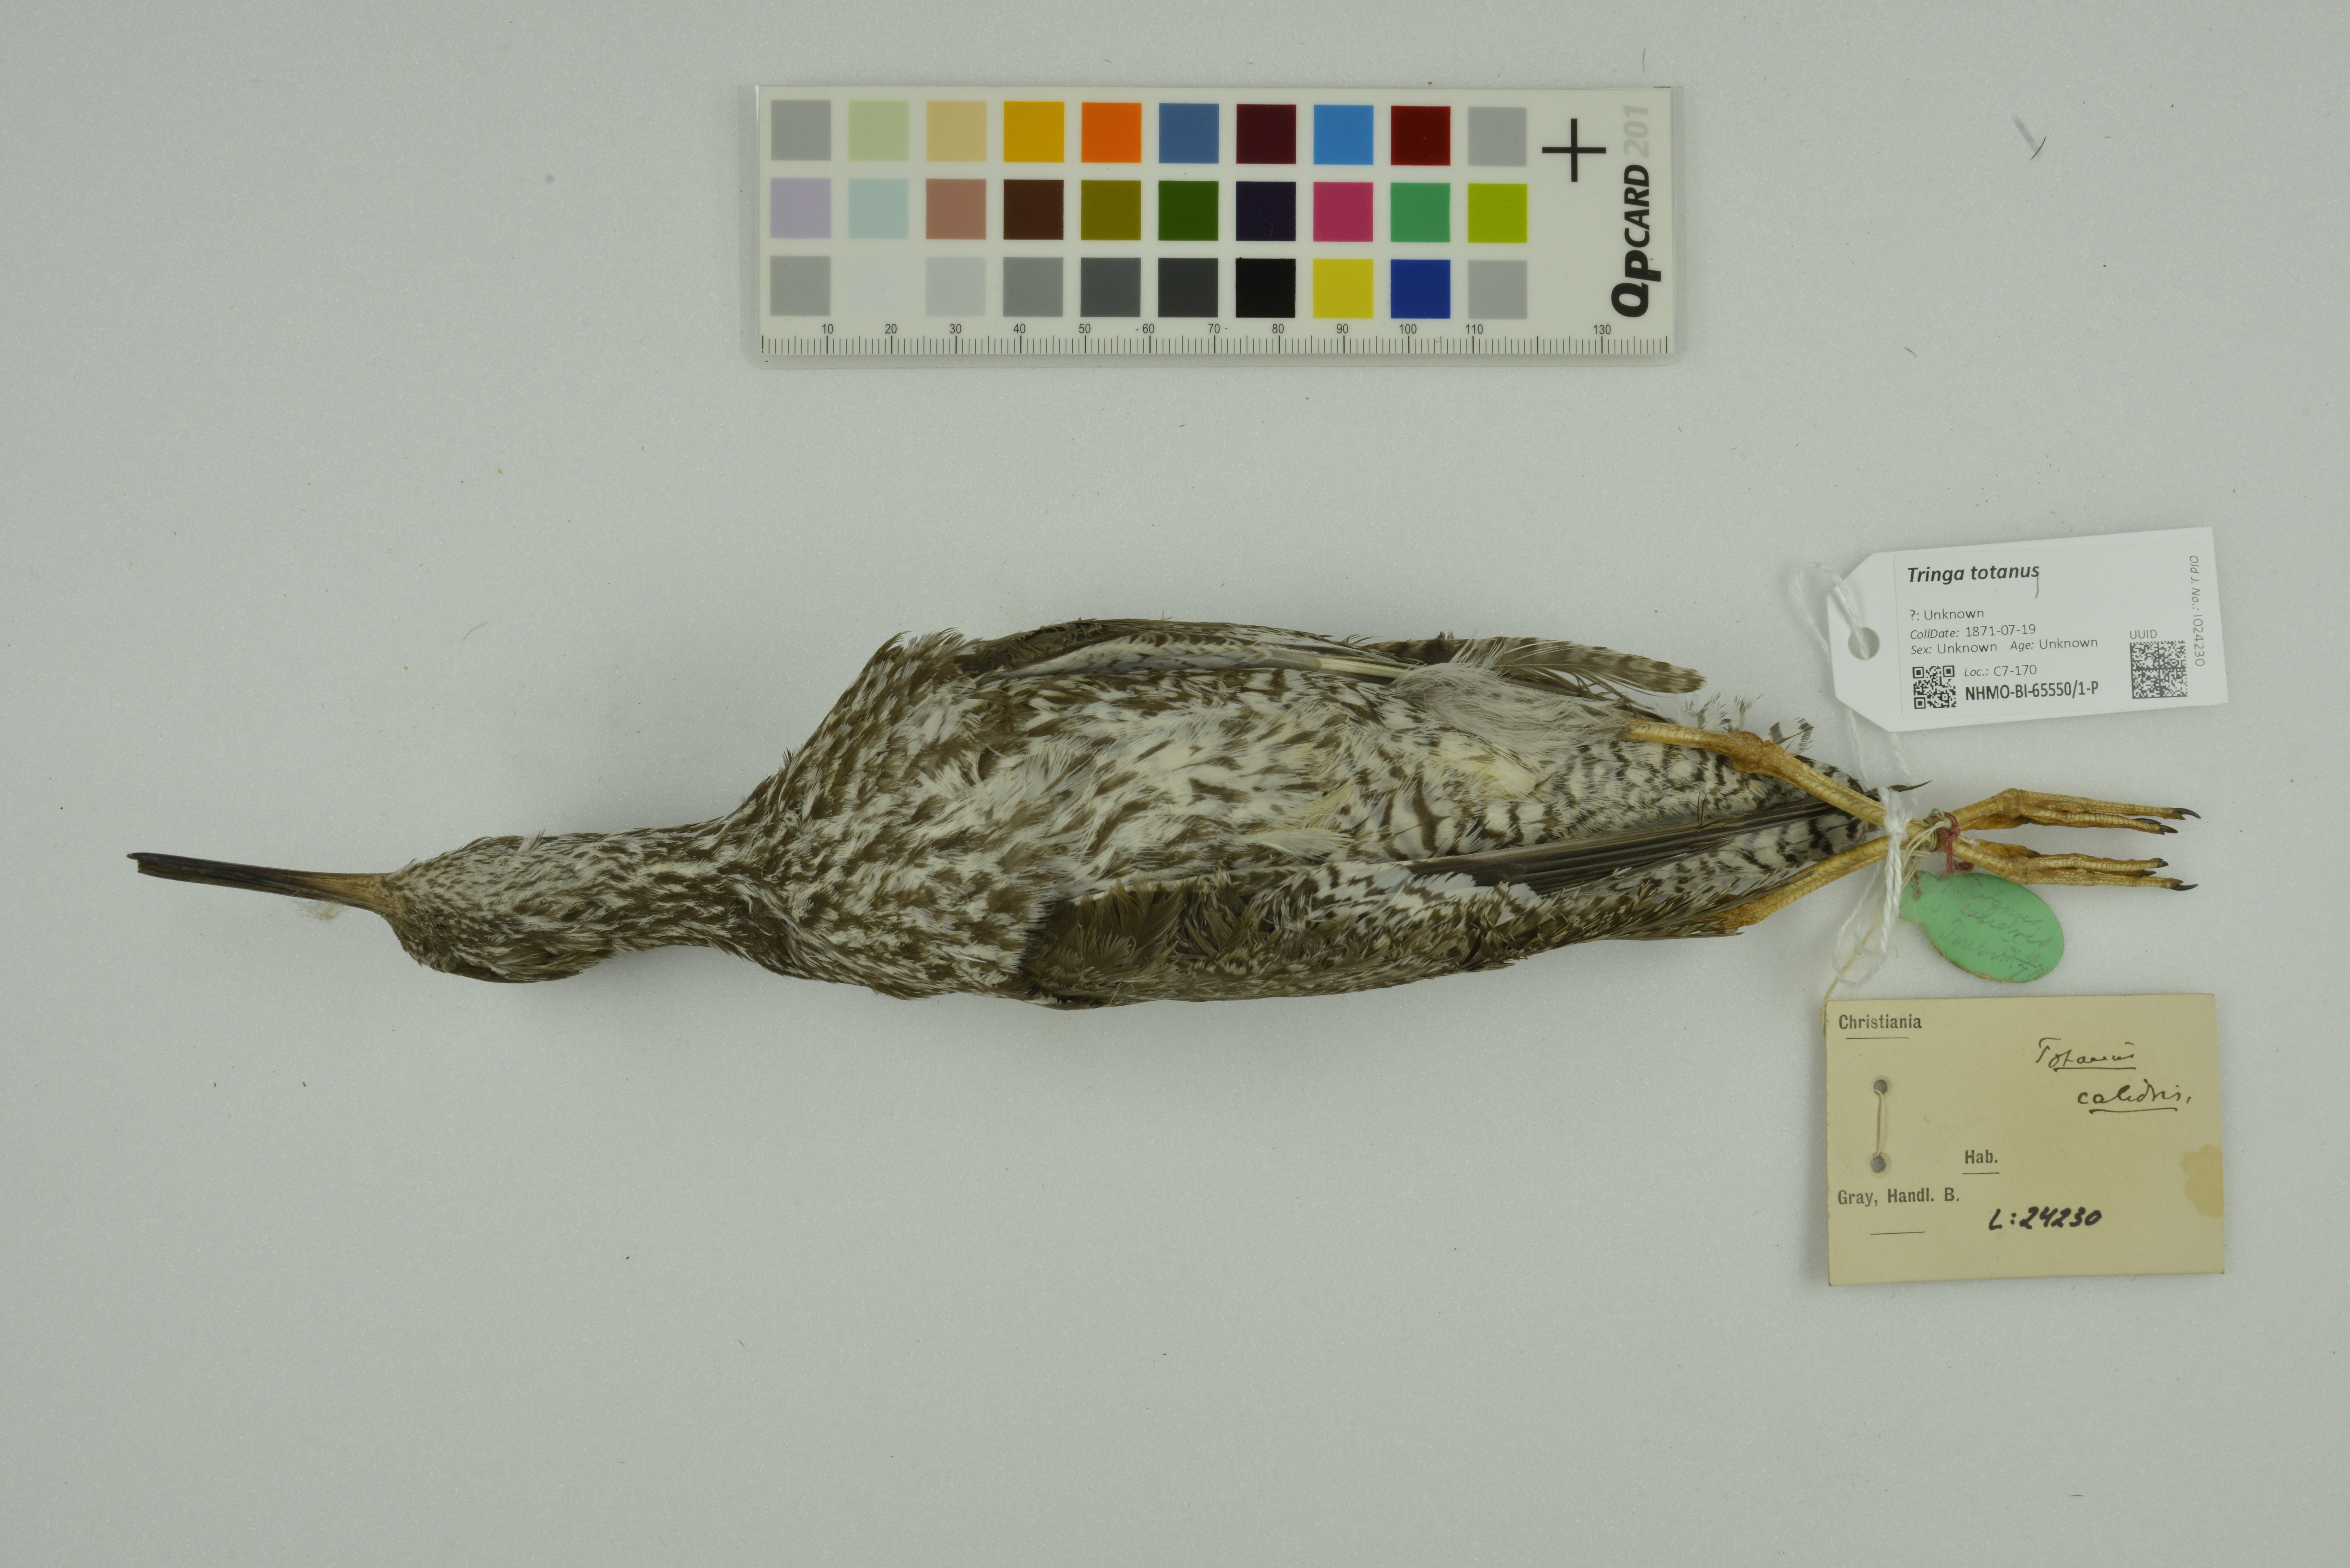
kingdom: Animalia
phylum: Chordata
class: Aves
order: Charadriiformes
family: Scolopacidae
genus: Tringa
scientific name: Tringa totanus
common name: Common redshank
